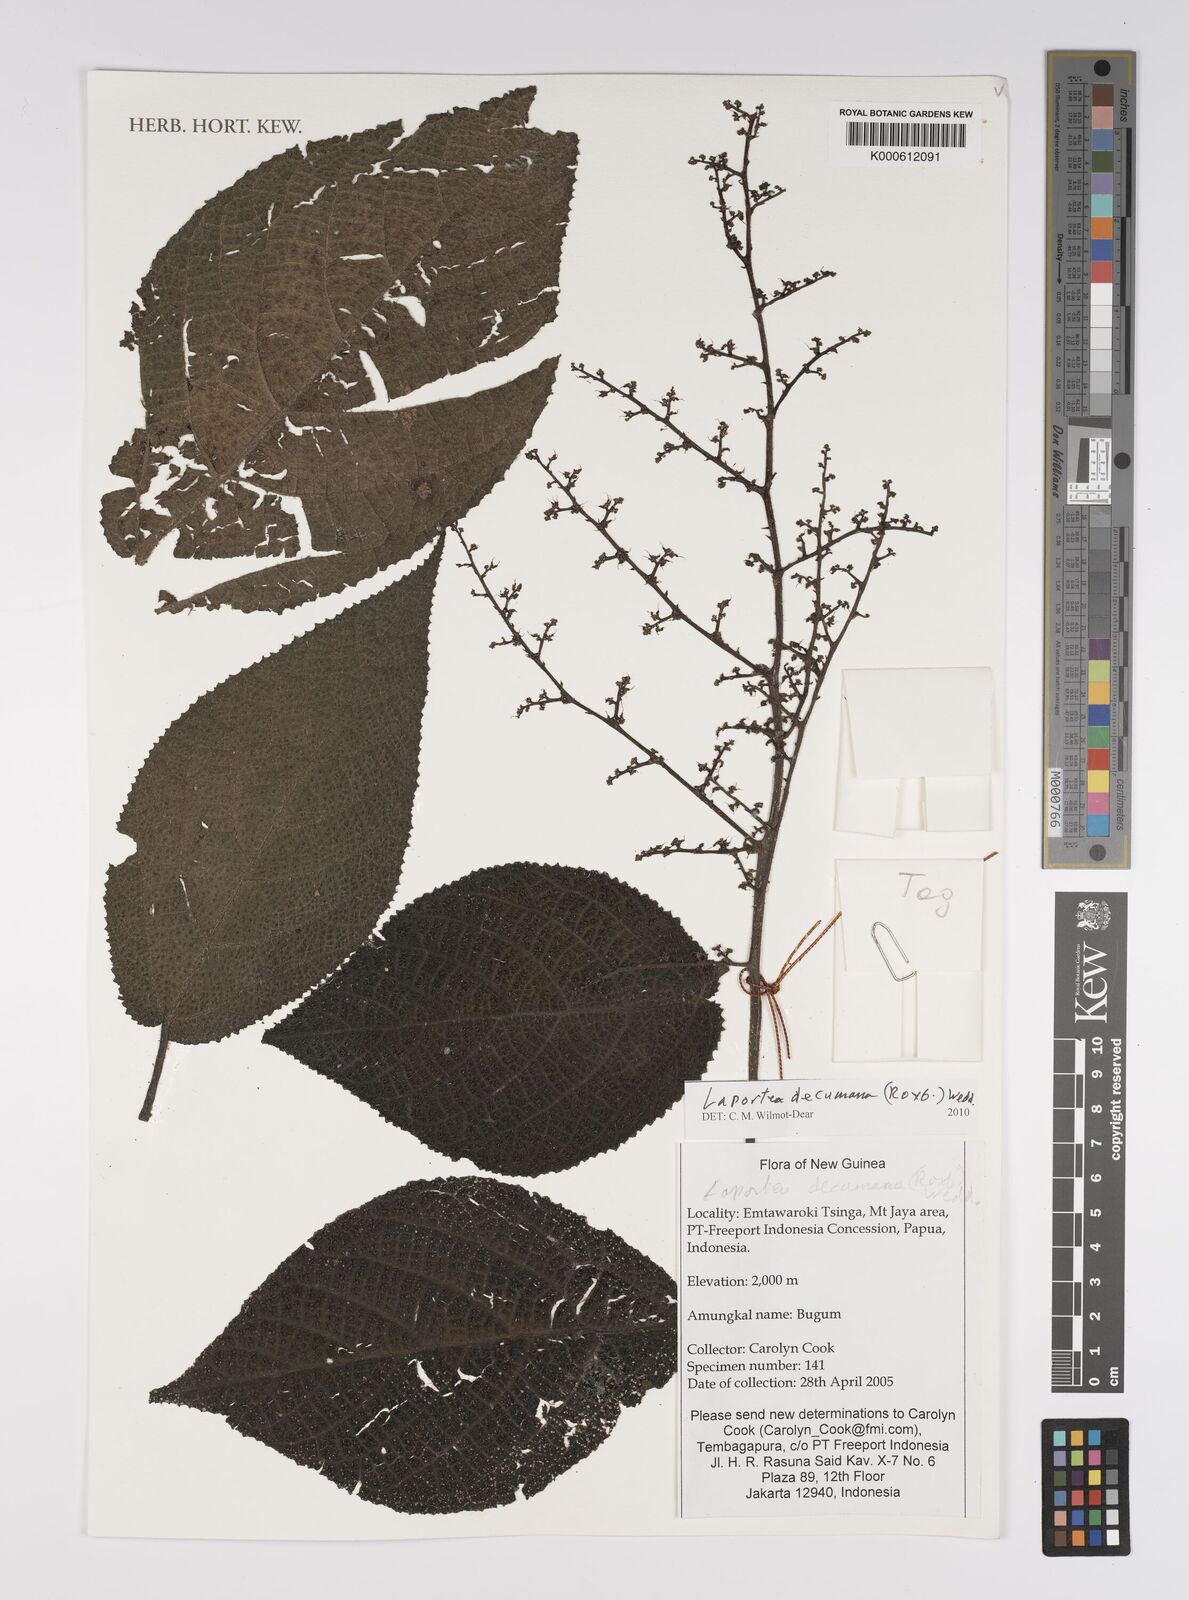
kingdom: Plantae
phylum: Tracheophyta
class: Magnoliopsida
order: Rosales
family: Urticaceae
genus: Laportea
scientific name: Laportea decumana
